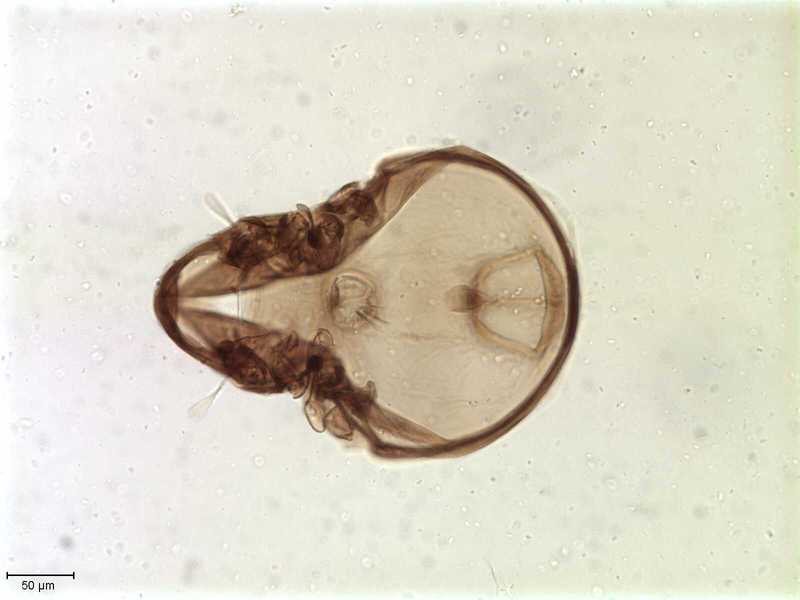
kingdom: Animalia
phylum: Arthropoda
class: Arachnida
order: Sarcoptiformes
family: Galumnidae
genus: Allogalumna
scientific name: Allogalumna exigua
